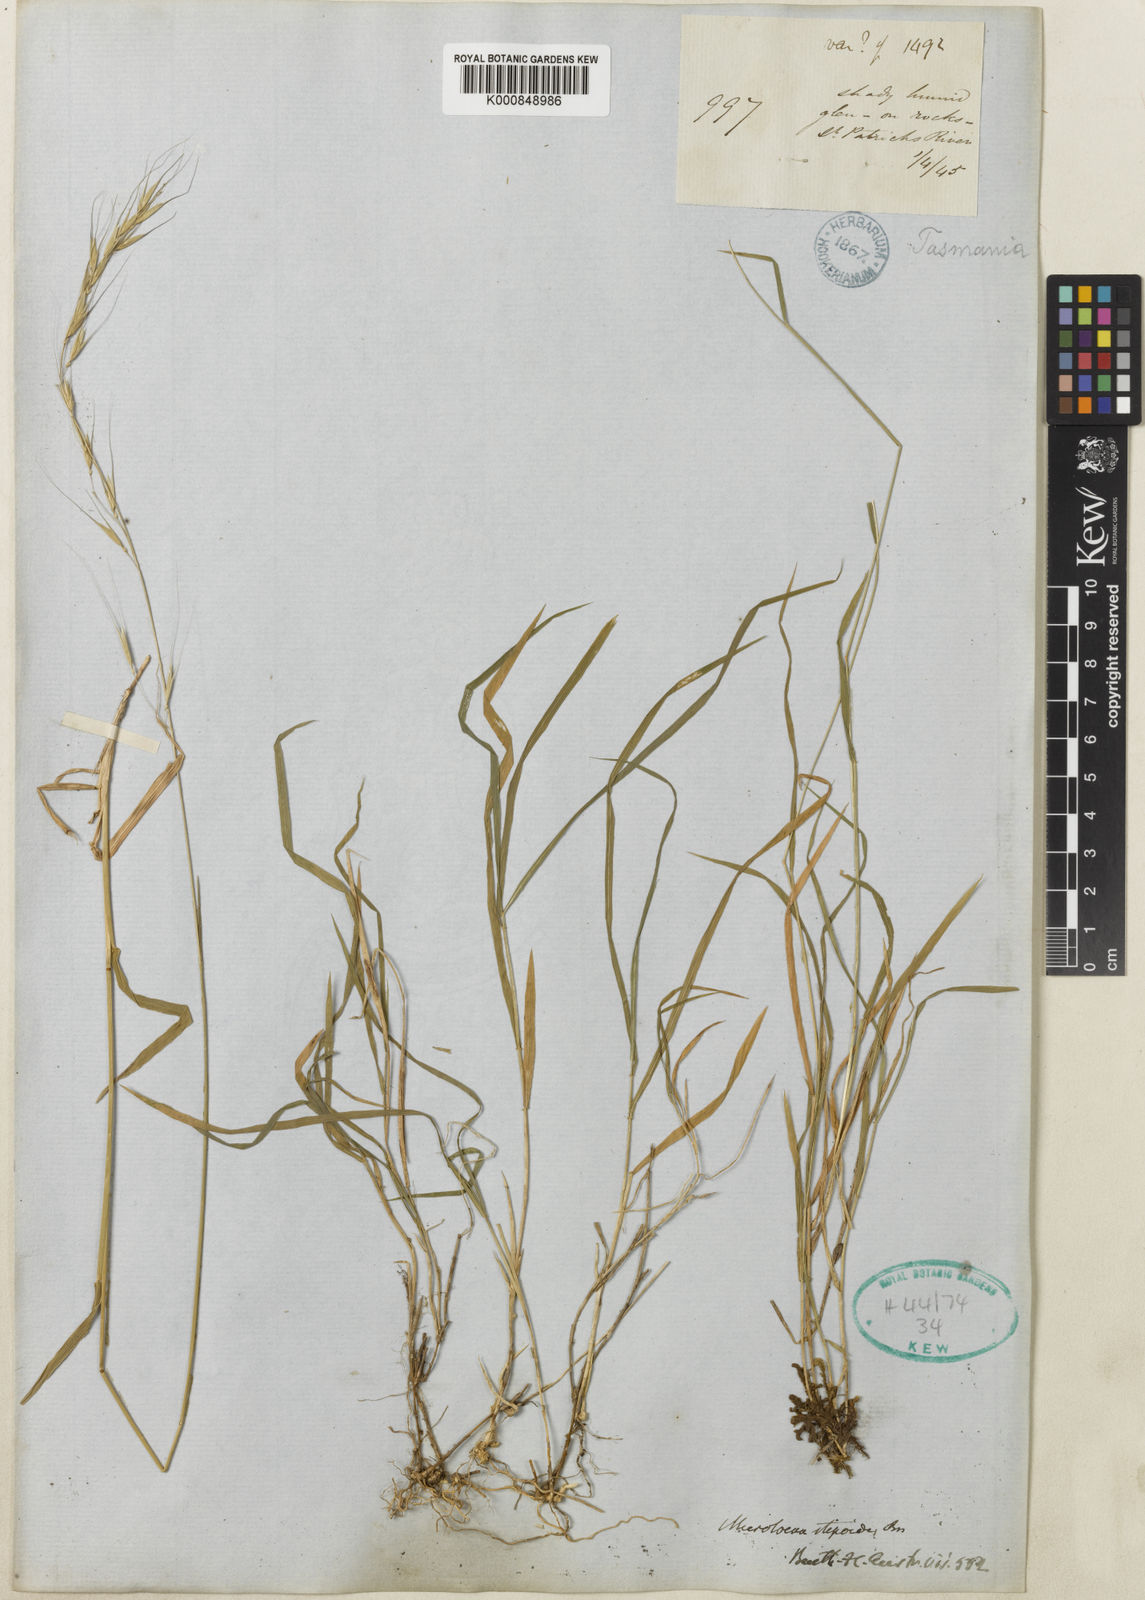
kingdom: Plantae
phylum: Tracheophyta
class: Liliopsida
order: Poales
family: Poaceae
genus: Microlaena
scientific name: Microlaena stipoides
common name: Meadow ricegrass
